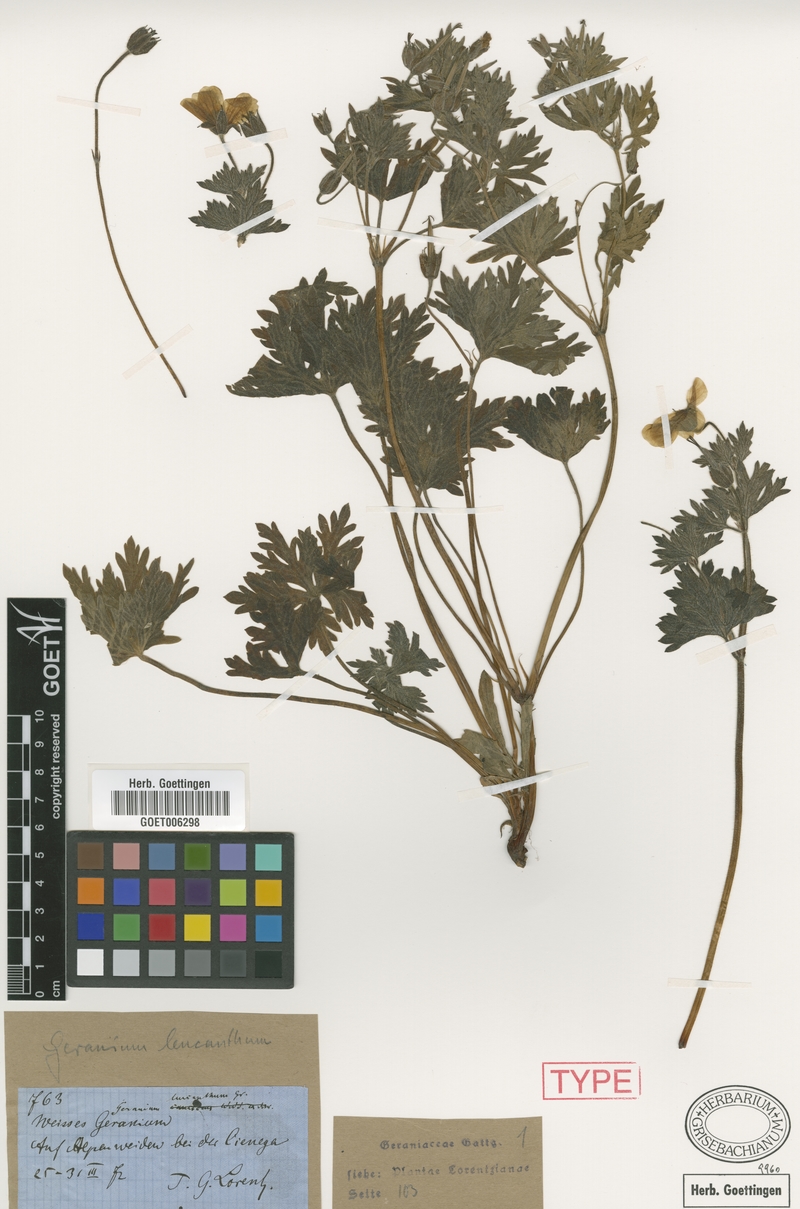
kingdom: Plantae
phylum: Tracheophyta
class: Magnoliopsida
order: Geraniales
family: Geraniaceae
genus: Geranium
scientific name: Geranium leucanthum
